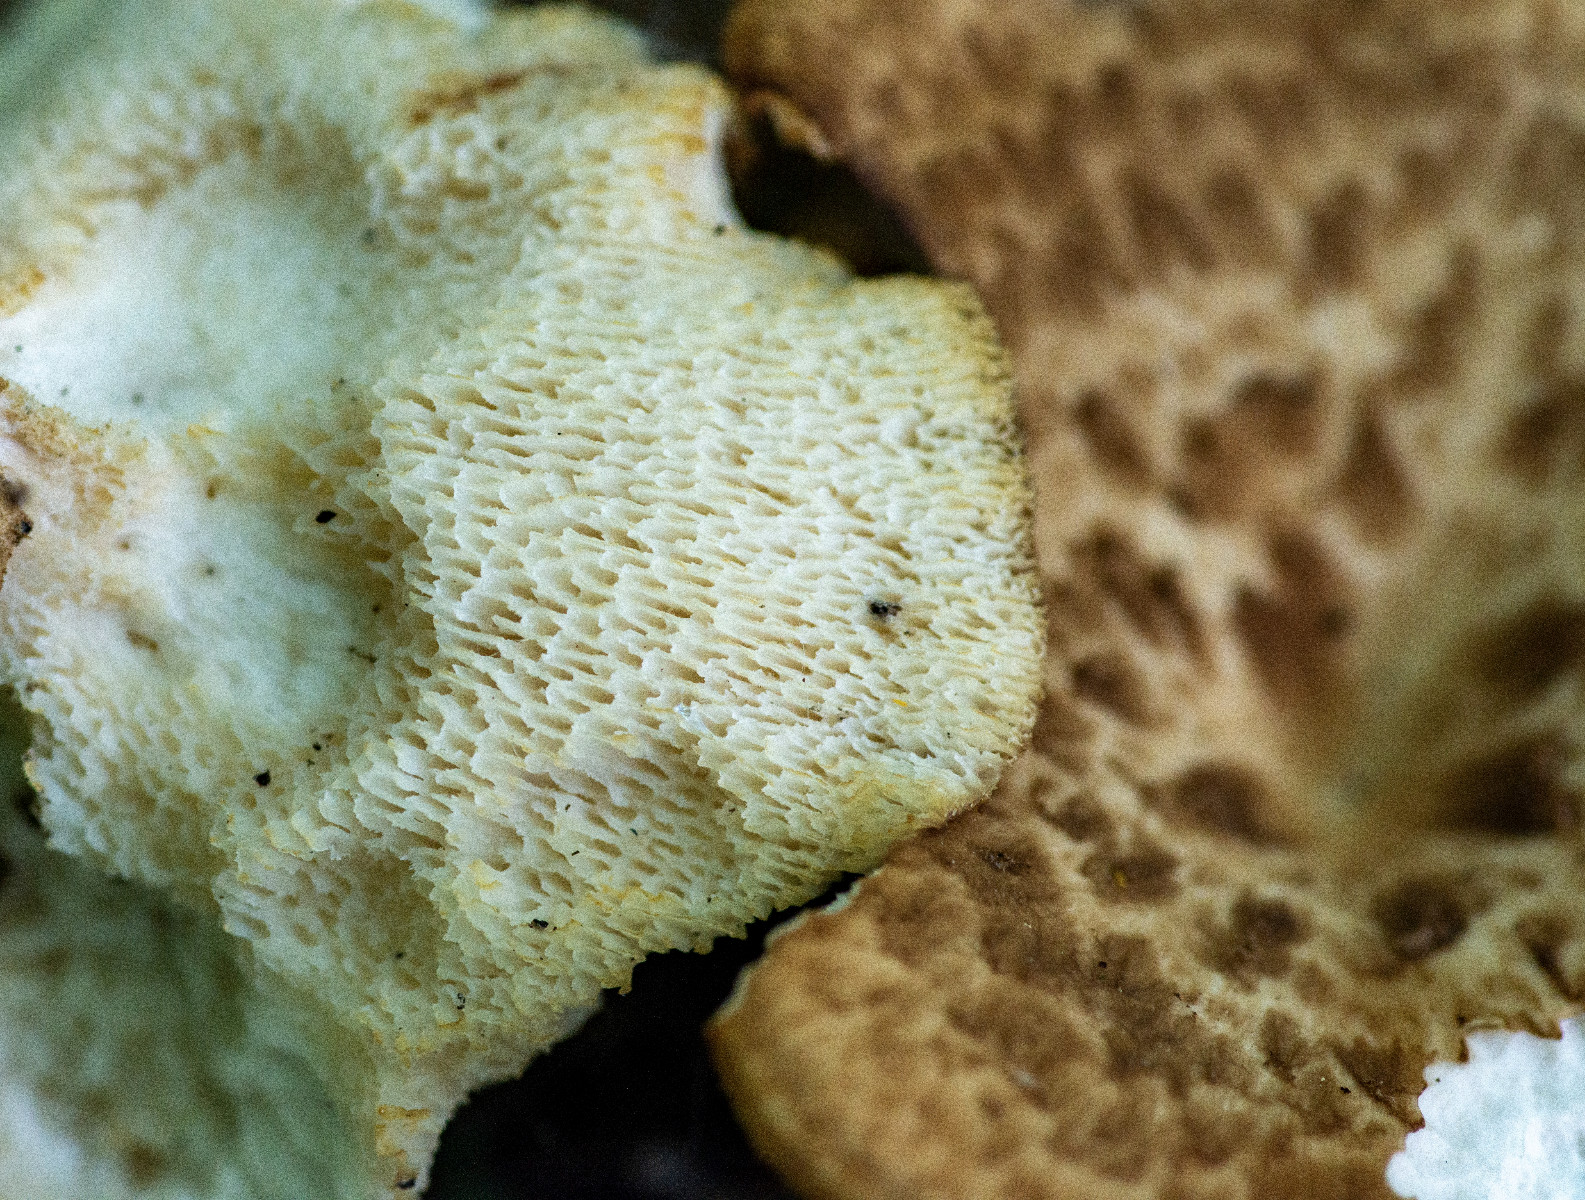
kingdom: Fungi
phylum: Basidiomycota
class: Agaricomycetes
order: Polyporales
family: Polyporaceae
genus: Polyporus
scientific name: Polyporus tuberaster
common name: knoldet stilkporesvamp
